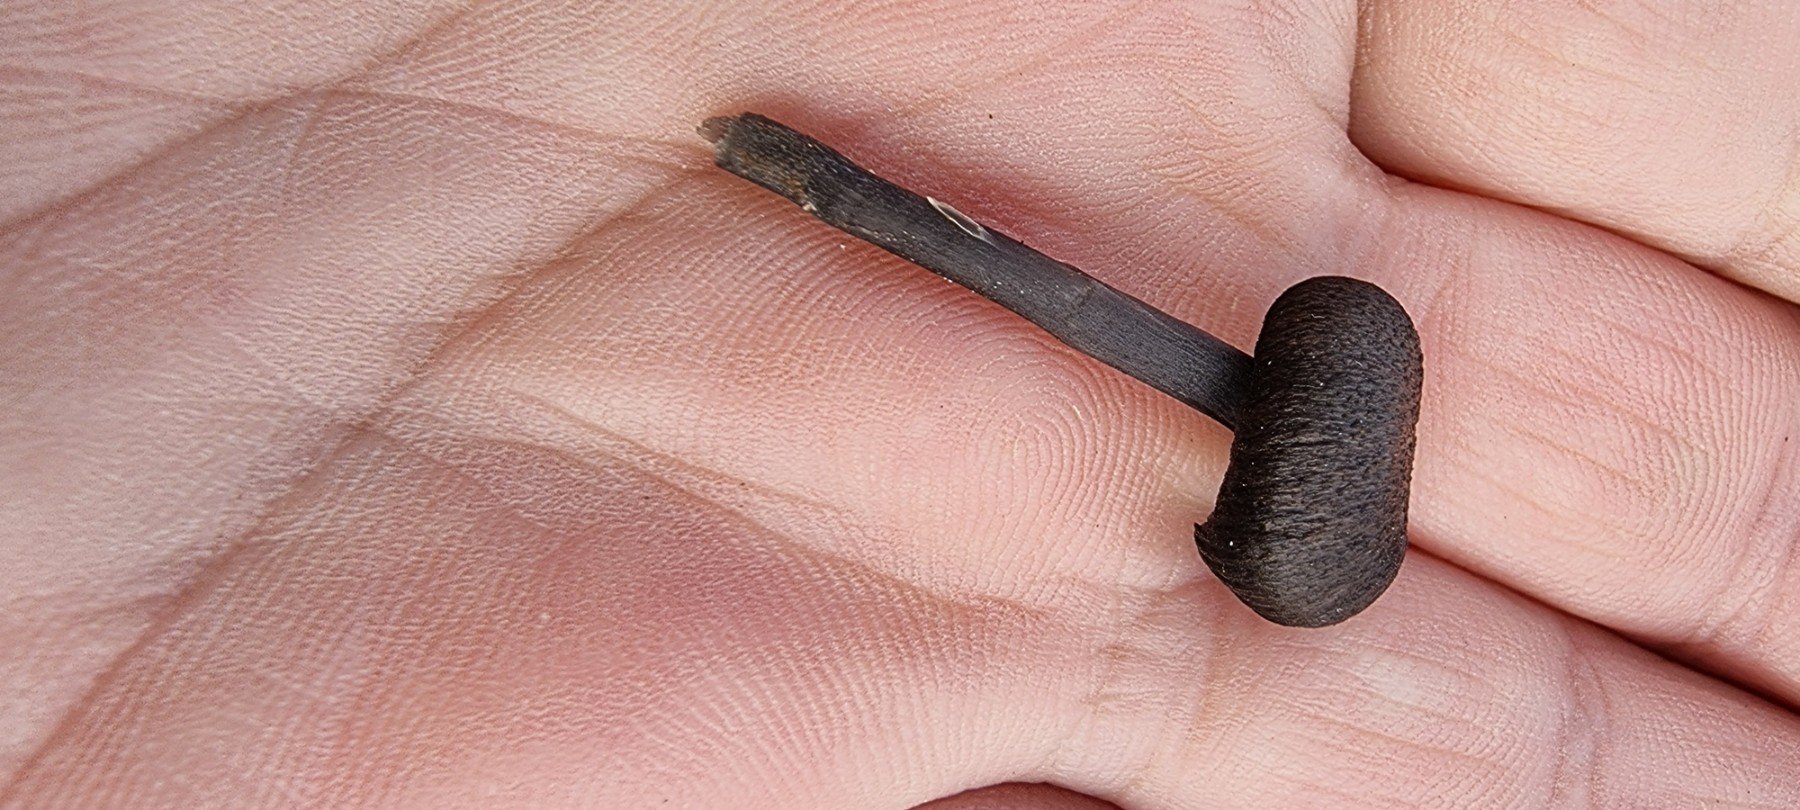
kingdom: Fungi
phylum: Basidiomycota
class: Agaricomycetes
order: Agaricales
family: Entolomataceae
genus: Entoloma
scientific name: Entoloma
